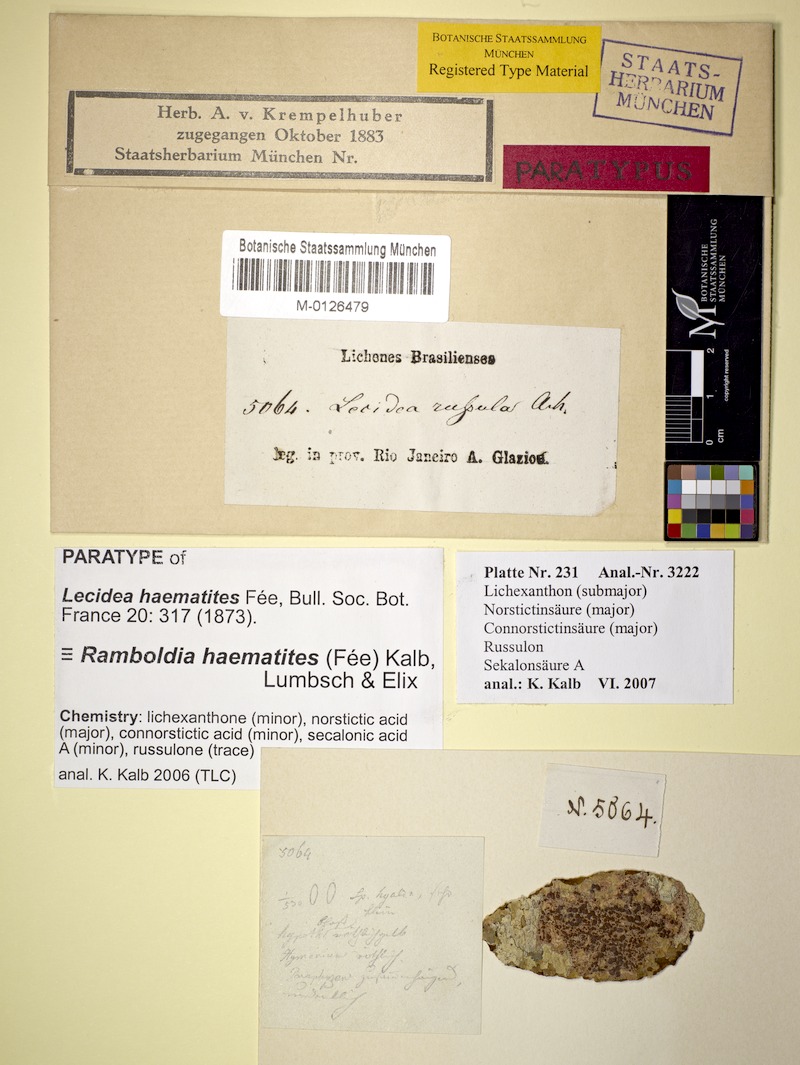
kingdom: Fungi
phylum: Ascomycota
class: Lecanoromycetes
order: Lecanorales
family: Ramboldiaceae
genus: Ramboldia
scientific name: Ramboldia haematites
